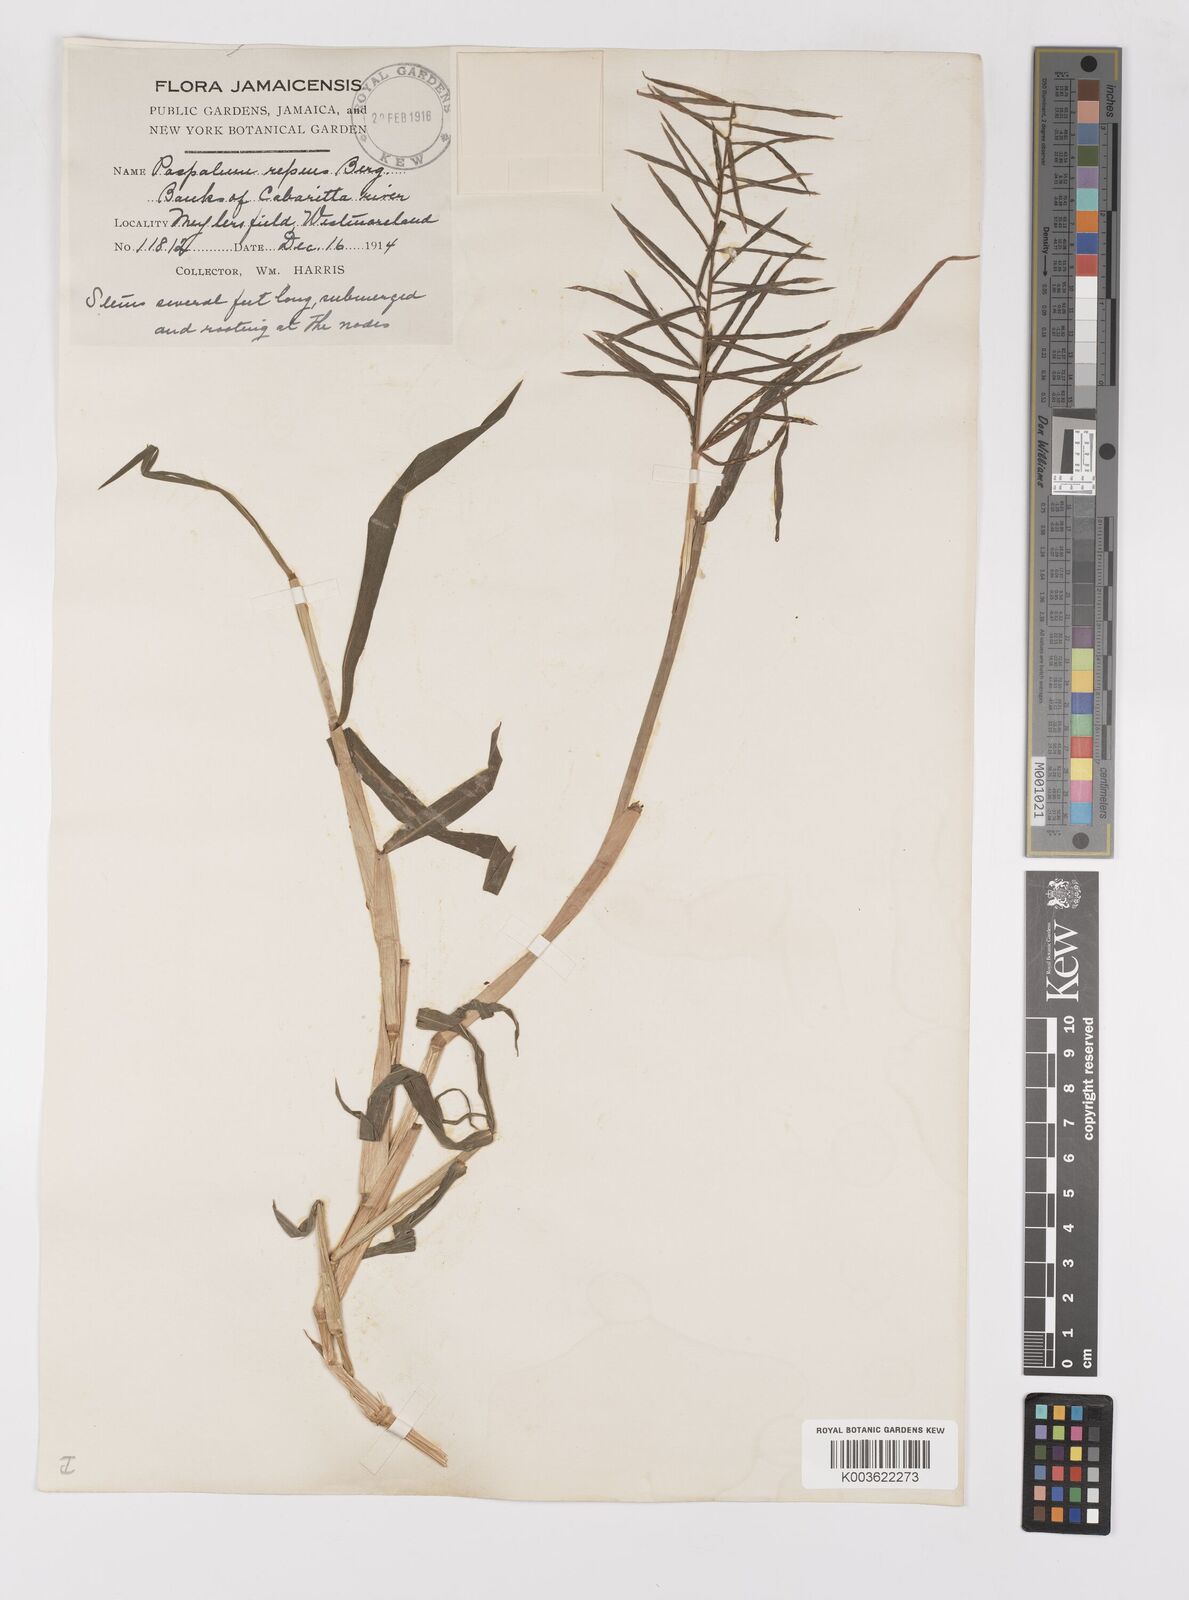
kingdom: Plantae
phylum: Tracheophyta
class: Liliopsida
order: Poales
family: Poaceae
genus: Paspalum
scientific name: Paspalum repens
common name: Water paspalum
